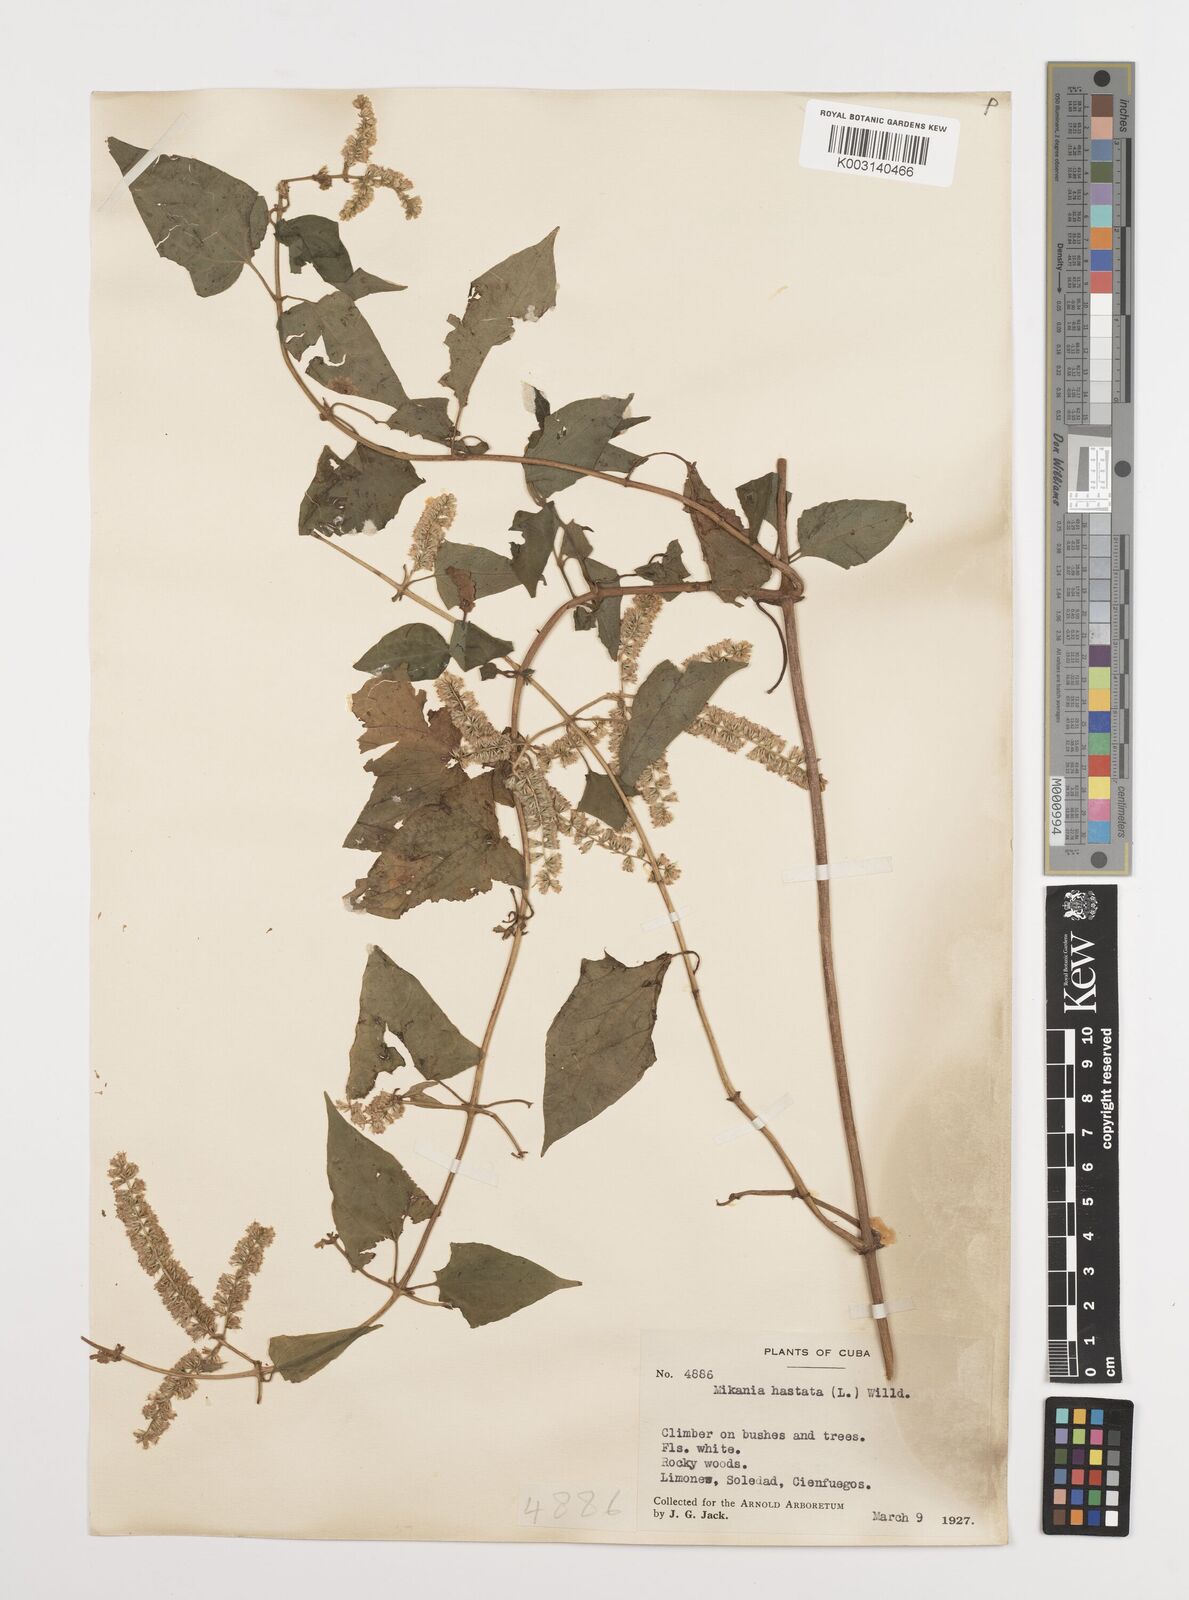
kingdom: Plantae
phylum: Tracheophyta
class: Magnoliopsida
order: Asterales
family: Asteraceae
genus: Mikania
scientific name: Mikania hastata
